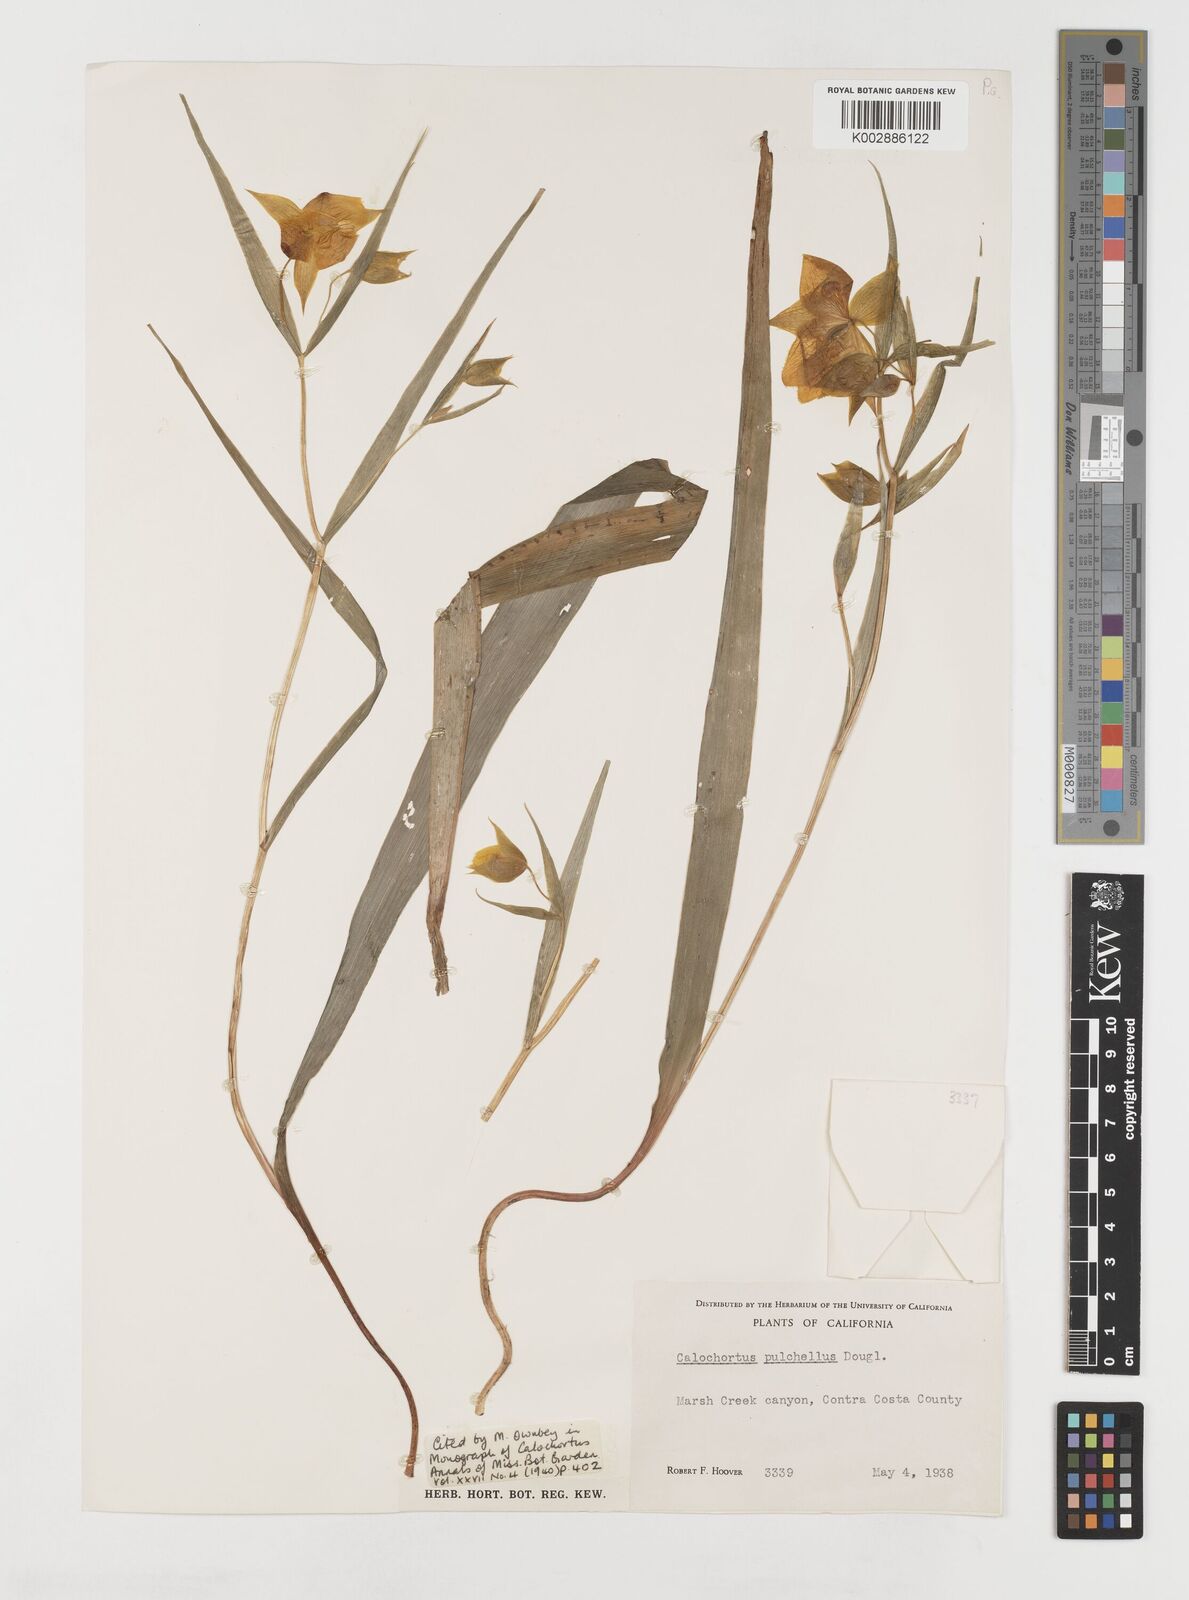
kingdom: Plantae
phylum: Tracheophyta
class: Liliopsida
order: Liliales
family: Liliaceae
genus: Calochortus
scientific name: Calochortus pulchellus
